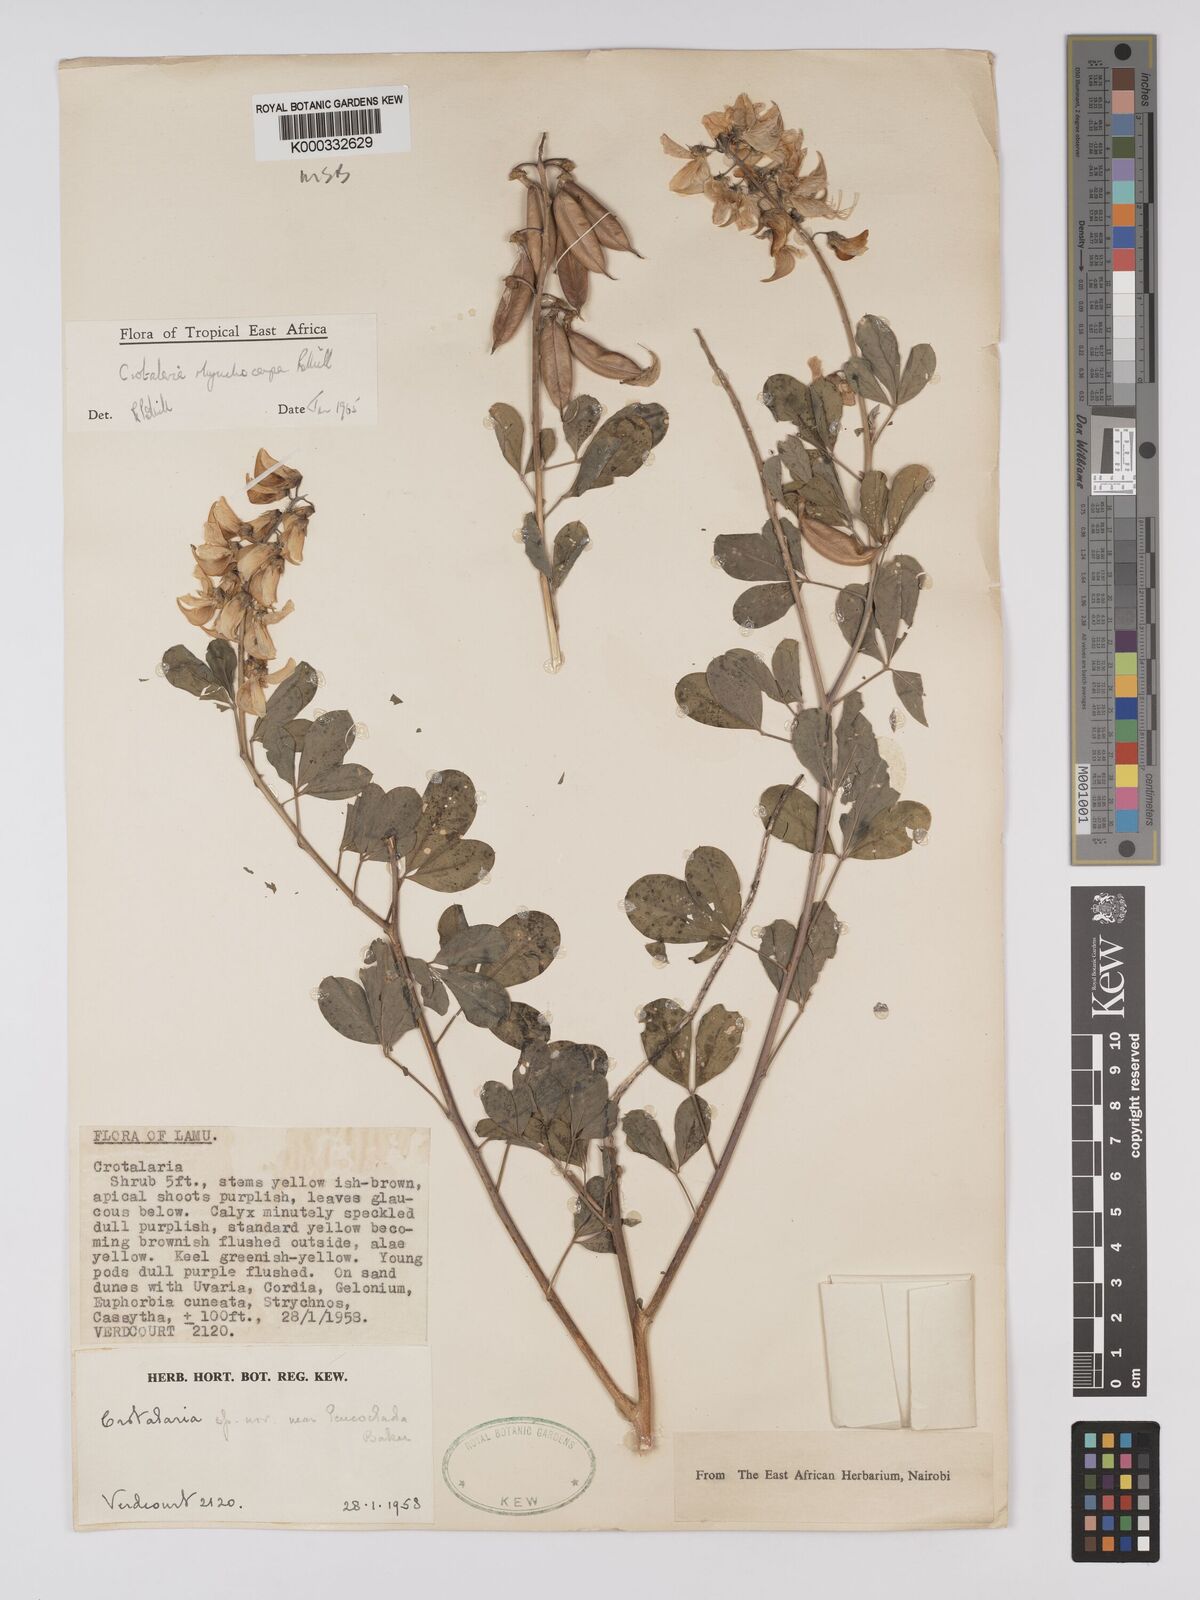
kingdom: Plantae
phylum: Tracheophyta
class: Magnoliopsida
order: Fabales
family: Fabaceae
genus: Crotalaria
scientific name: Crotalaria rhynchocarpa
